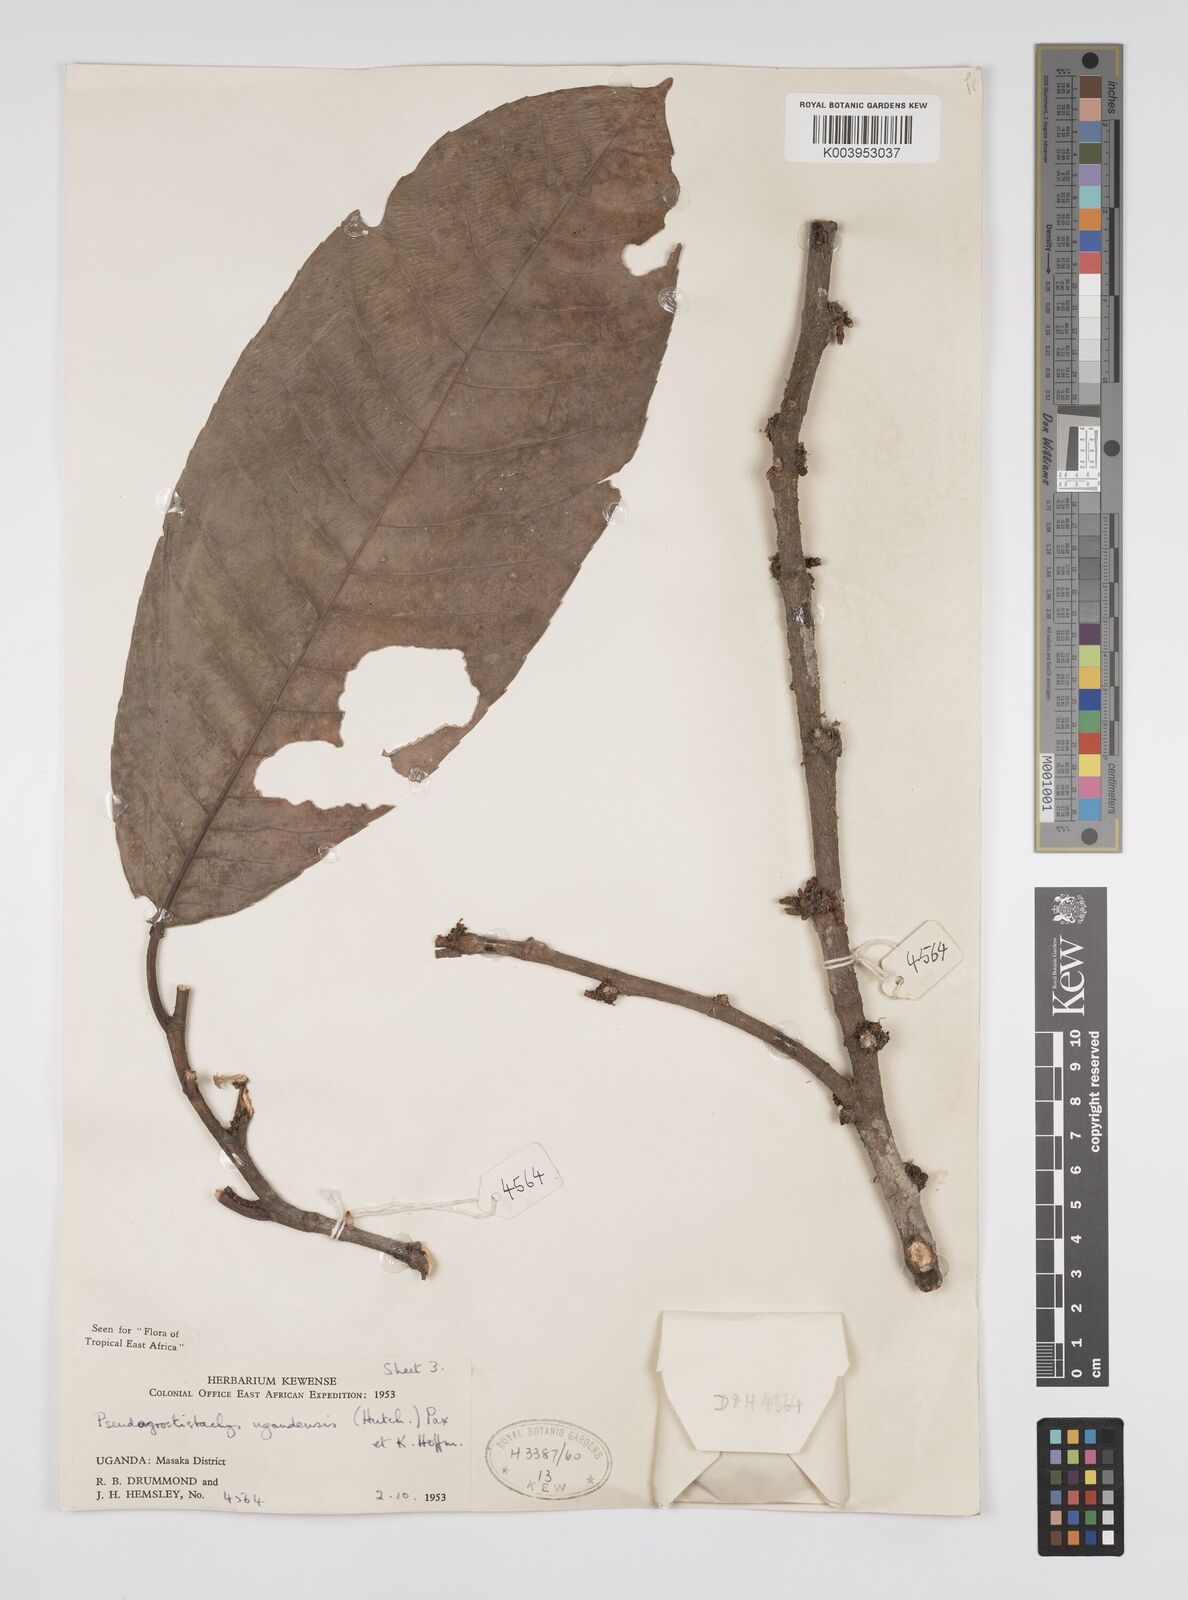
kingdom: Plantae
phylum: Tracheophyta
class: Magnoliopsida
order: Malpighiales
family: Euphorbiaceae
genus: Pseudagrostistachys
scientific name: Pseudagrostistachys ugandensis
